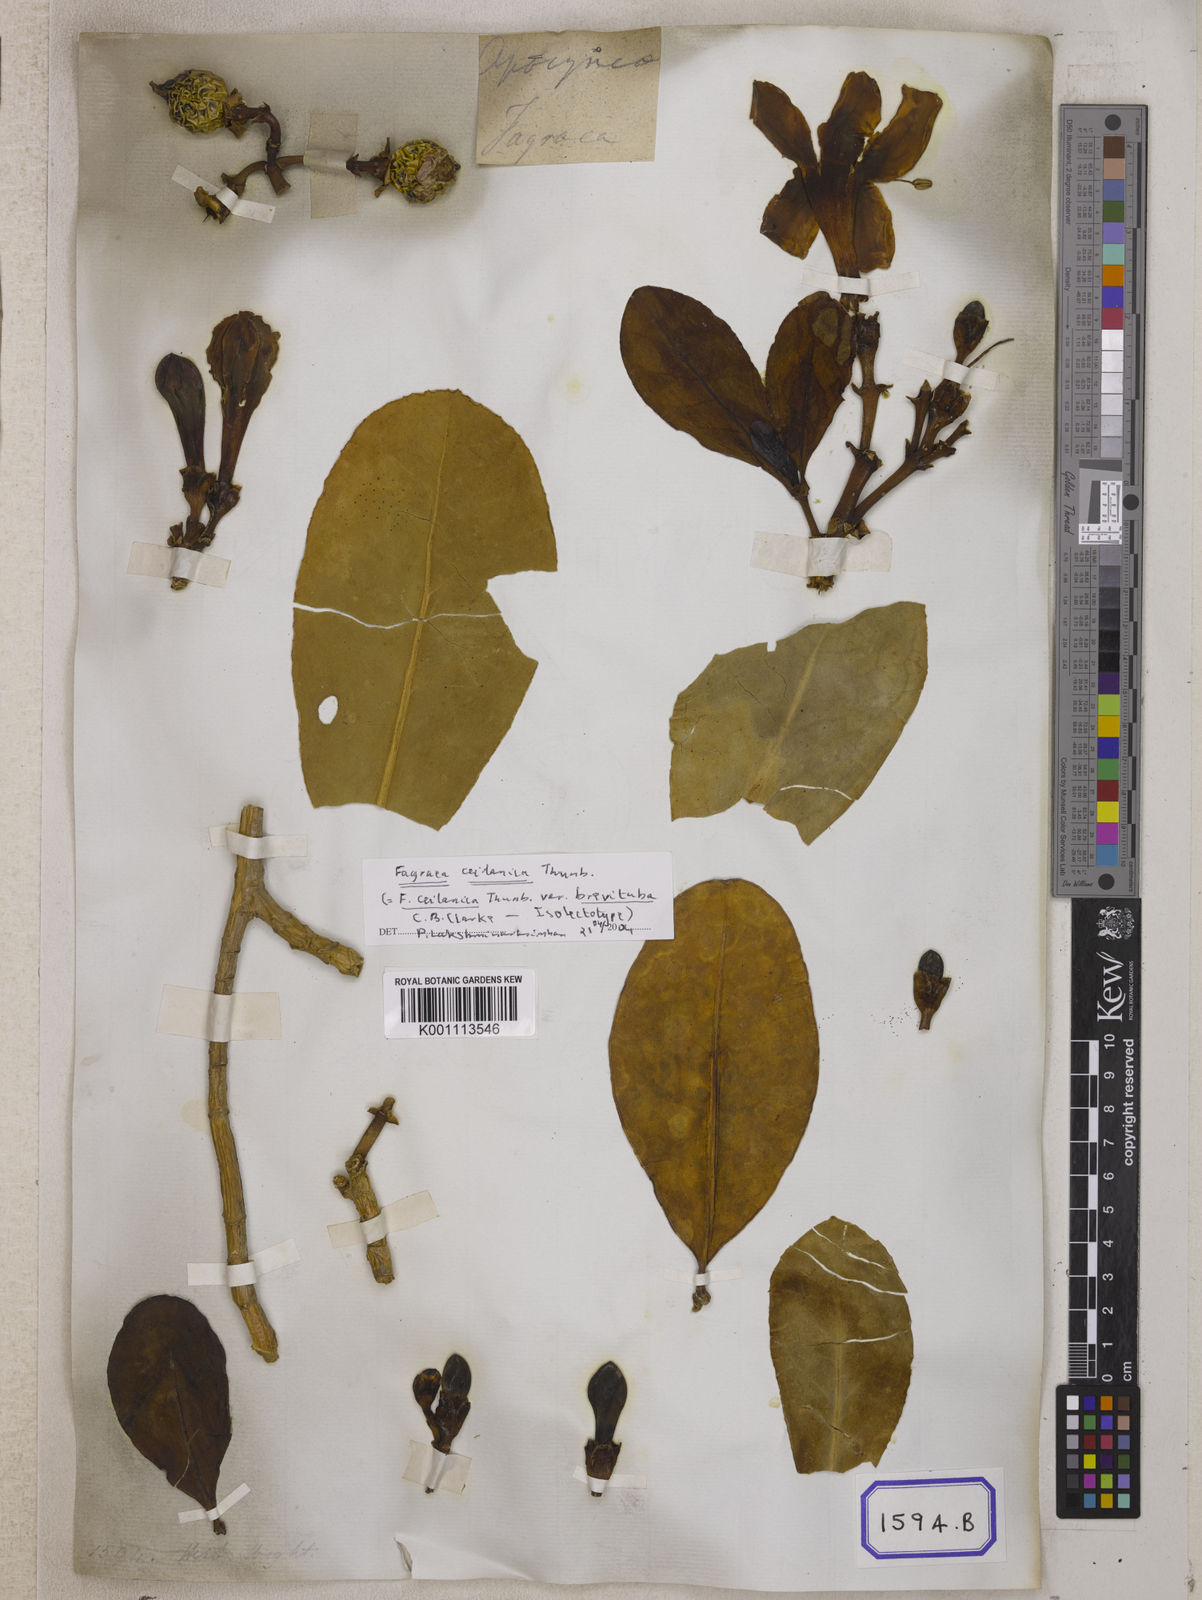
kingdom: Plantae
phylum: Tracheophyta
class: Magnoliopsida
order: Gentianales
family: Gentianaceae
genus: Fagraea
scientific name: Fagraea
